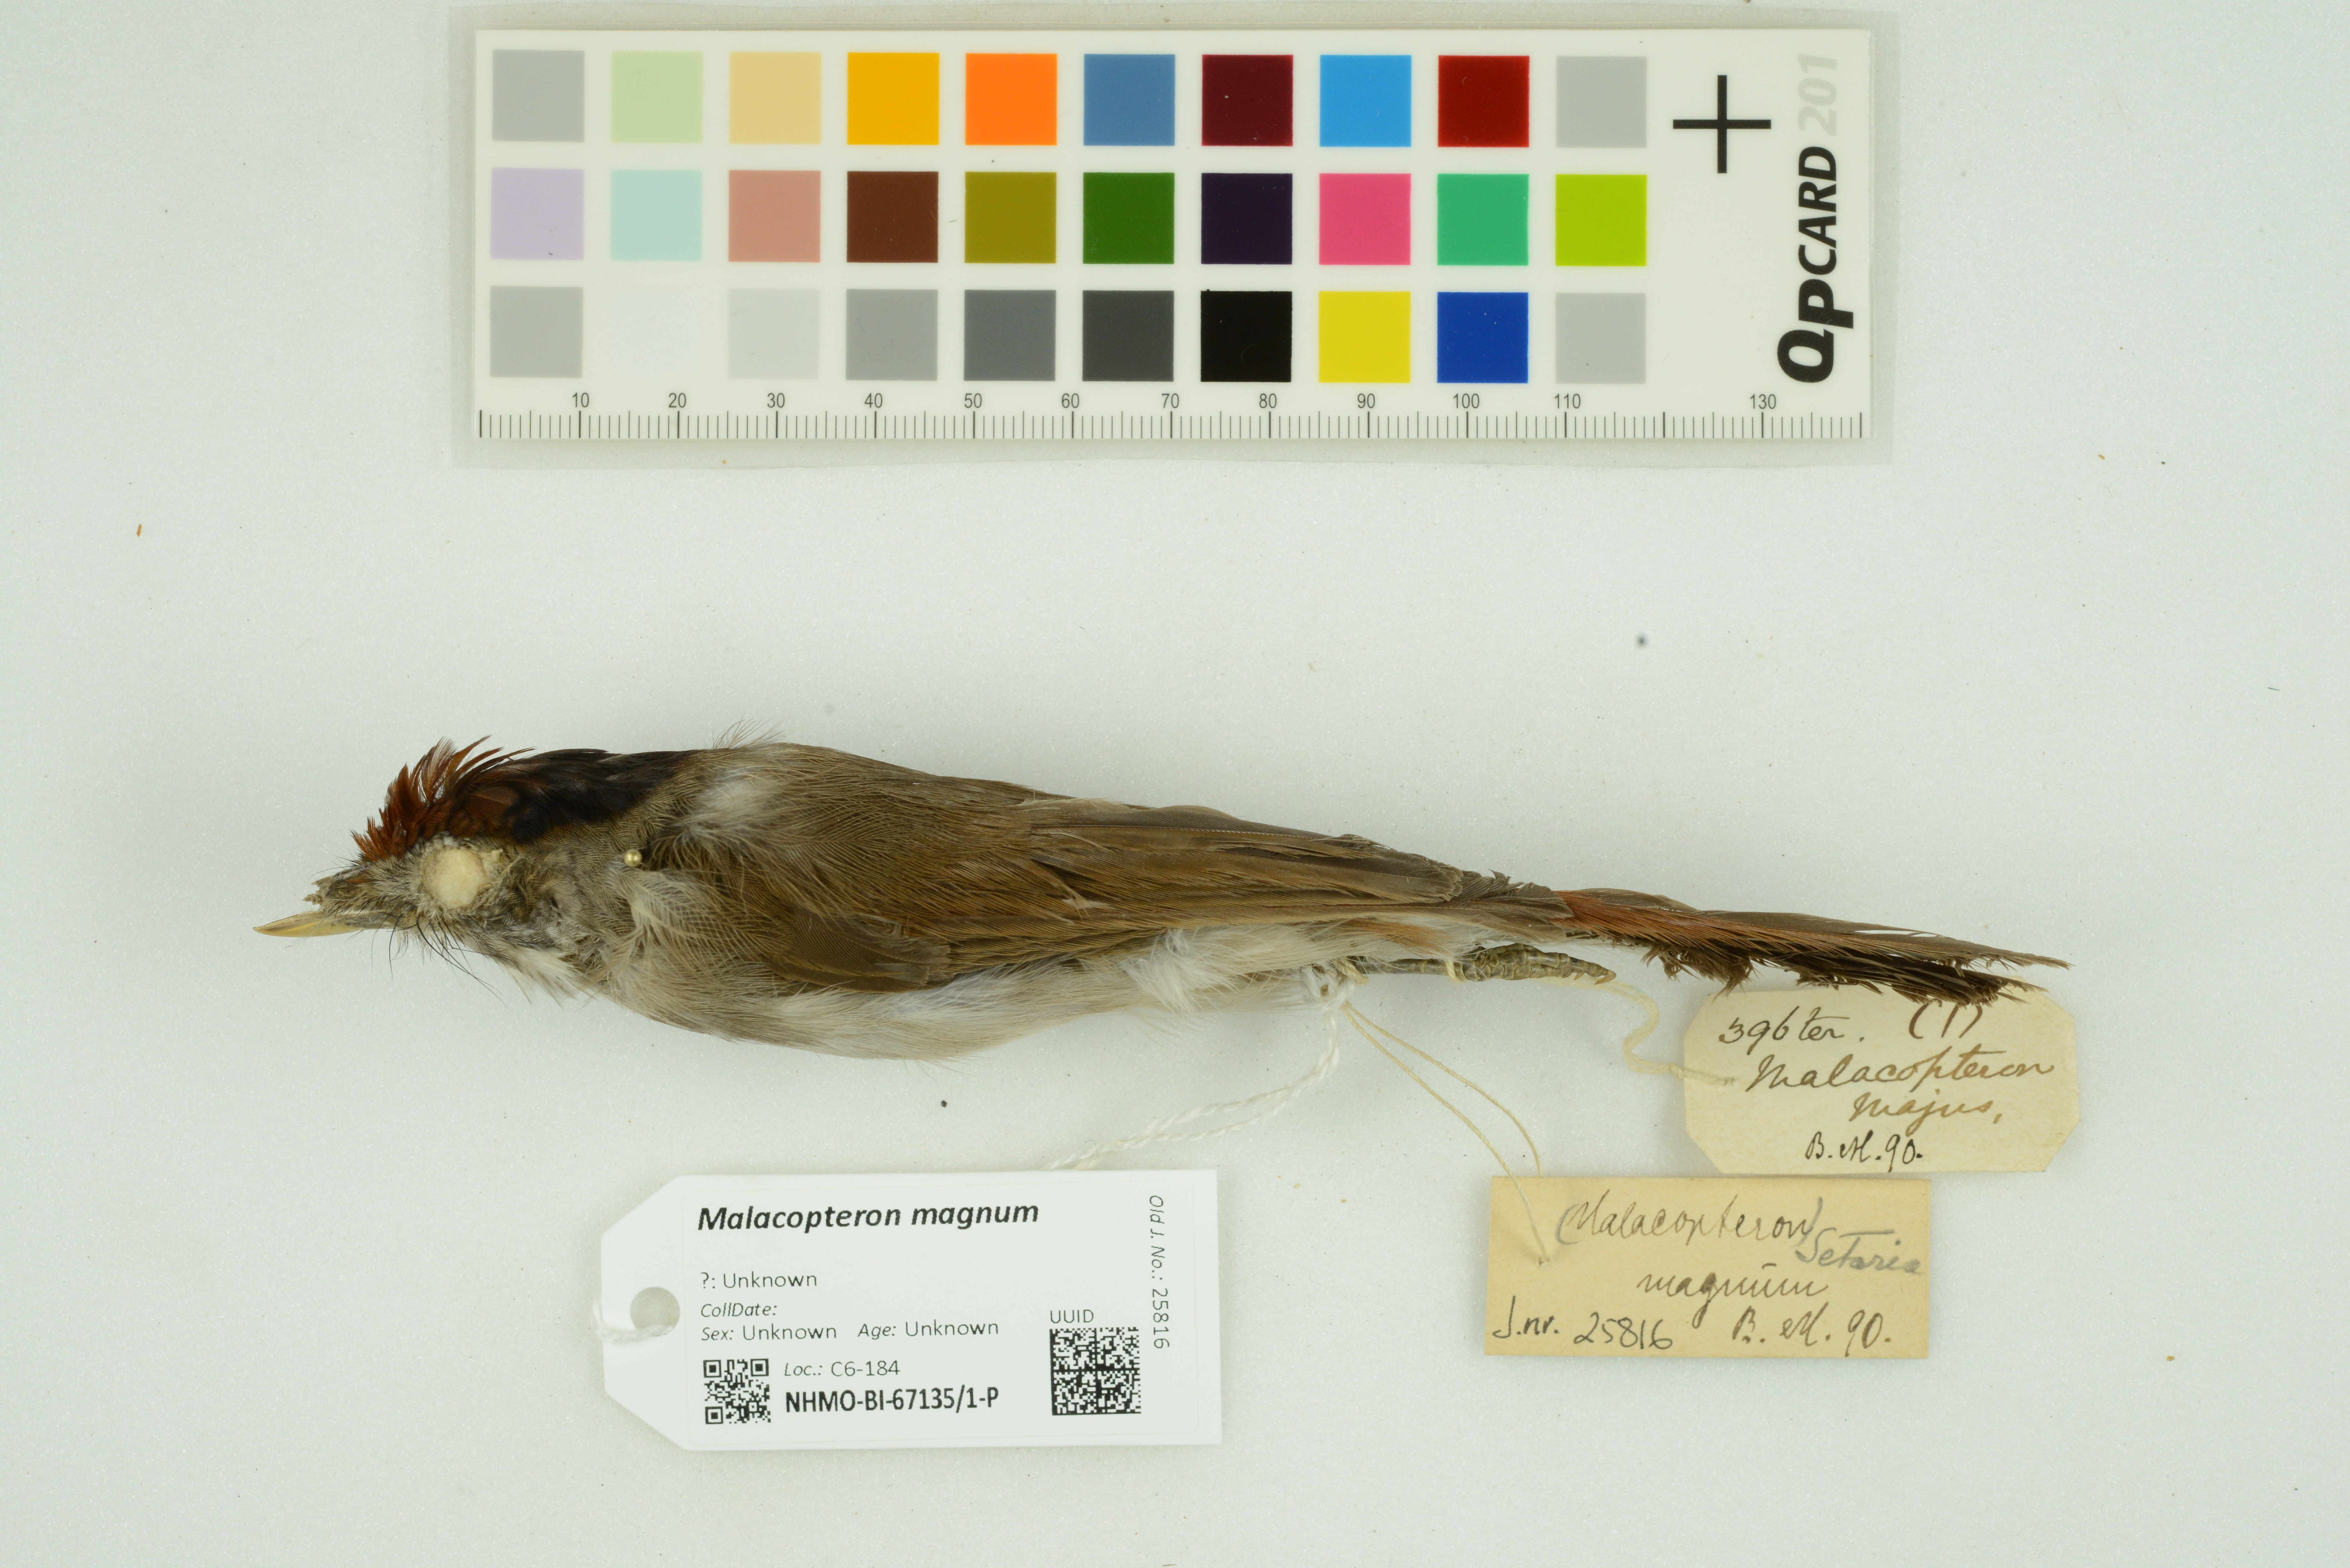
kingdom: Animalia
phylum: Chordata
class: Aves
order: Passeriformes
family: Pellorneidae
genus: Malacopteron
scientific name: Malacopteron magnum
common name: Rufous-crowned babbler
